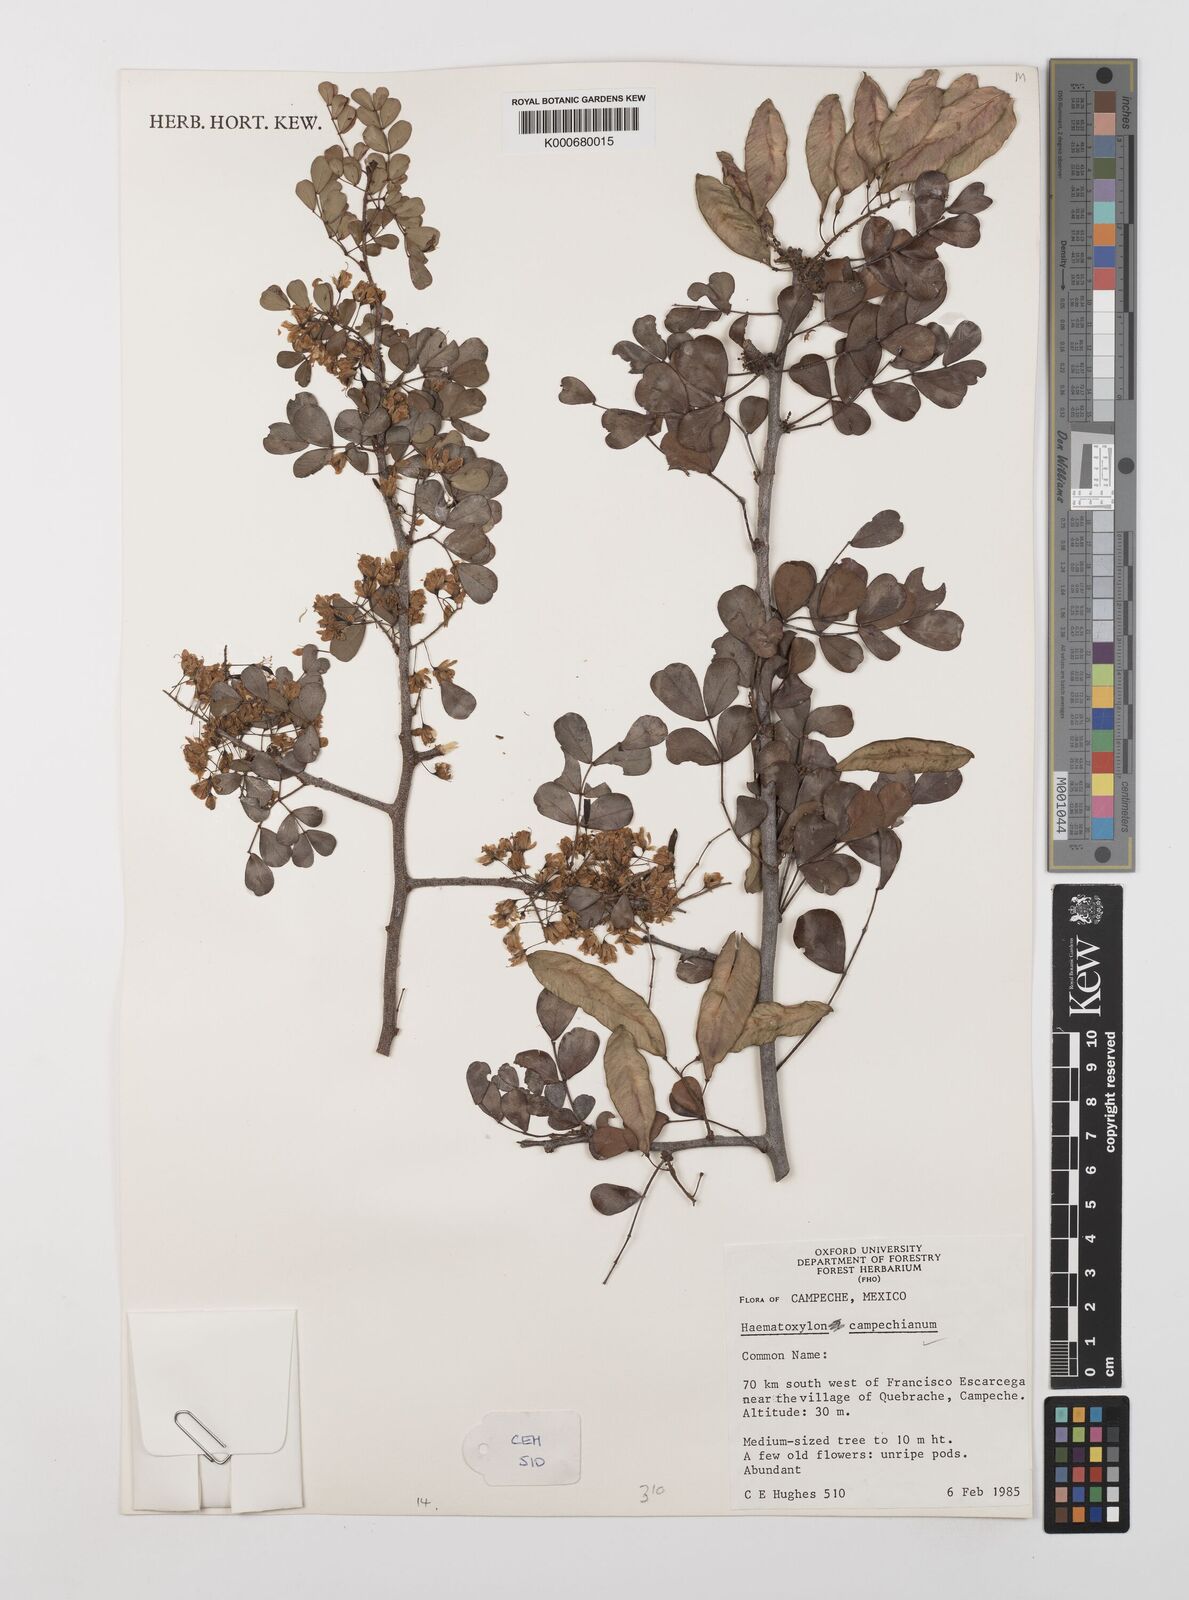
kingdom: Plantae
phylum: Tracheophyta
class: Magnoliopsida
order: Fabales
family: Fabaceae
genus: Haematoxylum
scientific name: Haematoxylum
